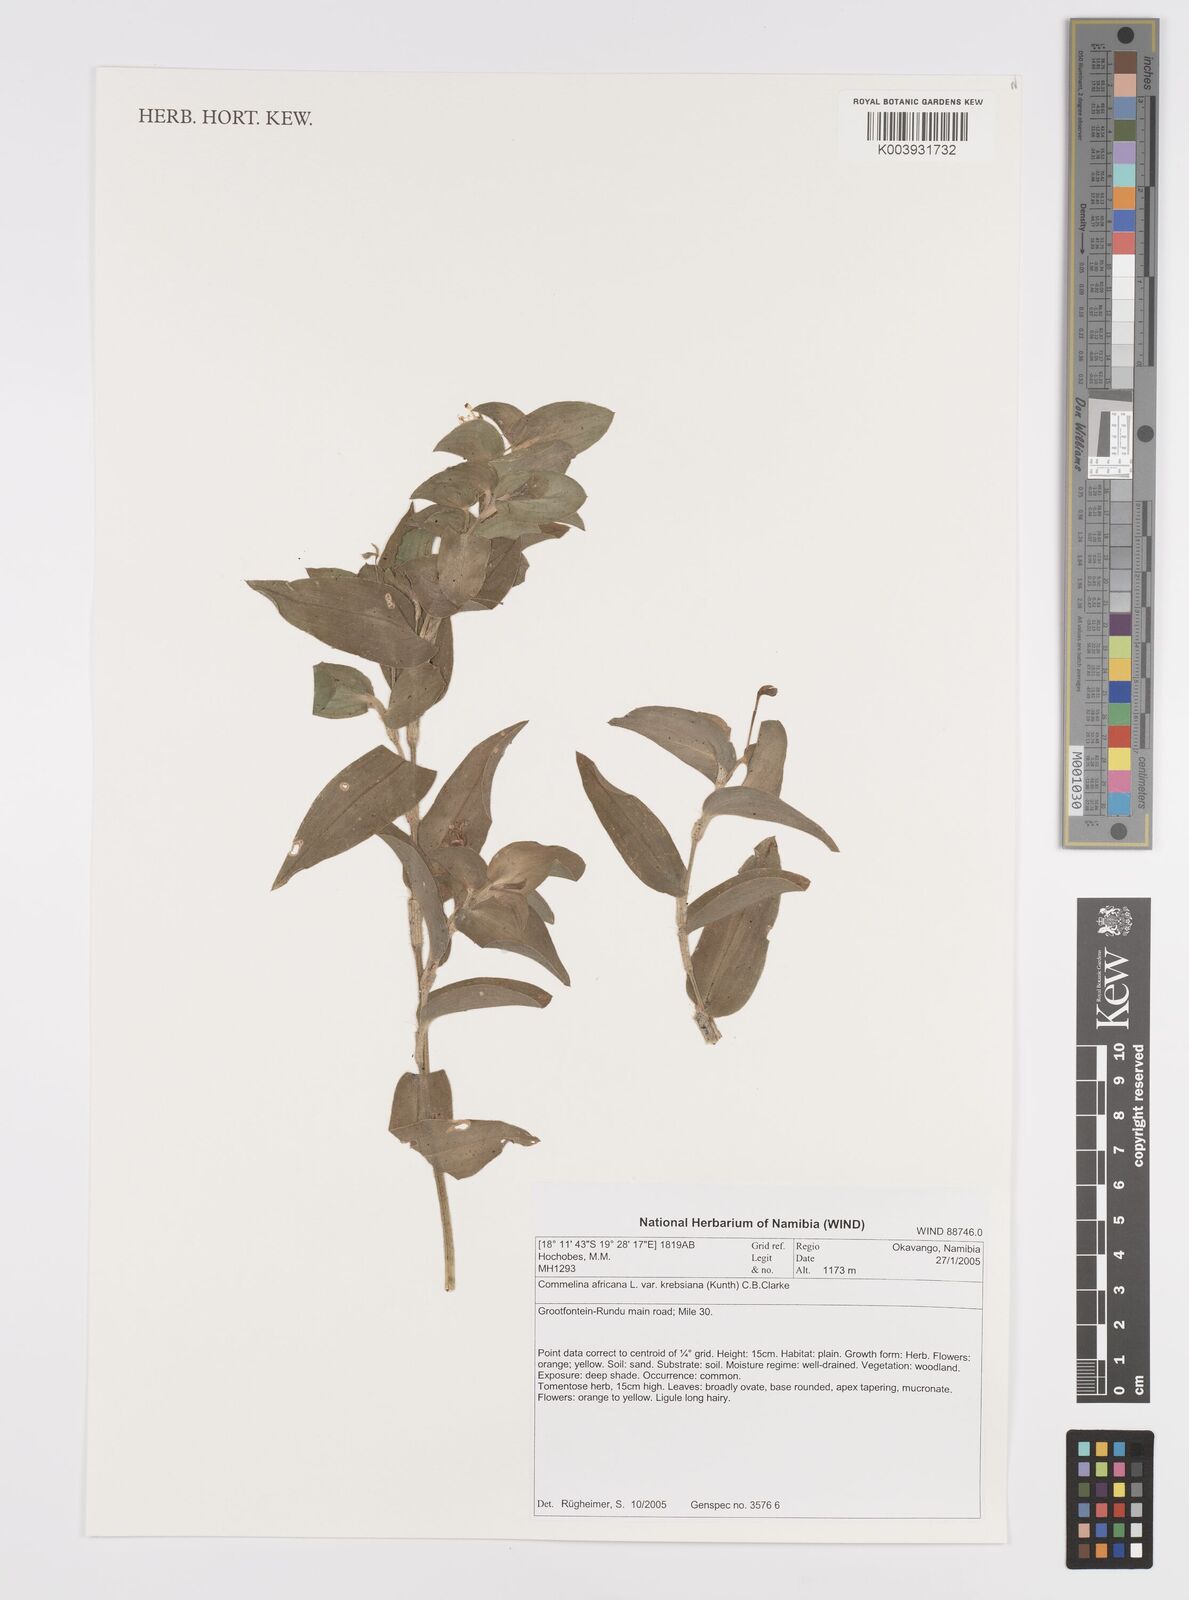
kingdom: Plantae
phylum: Tracheophyta
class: Liliopsida
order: Commelinales
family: Commelinaceae
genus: Commelina
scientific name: Commelina africana
